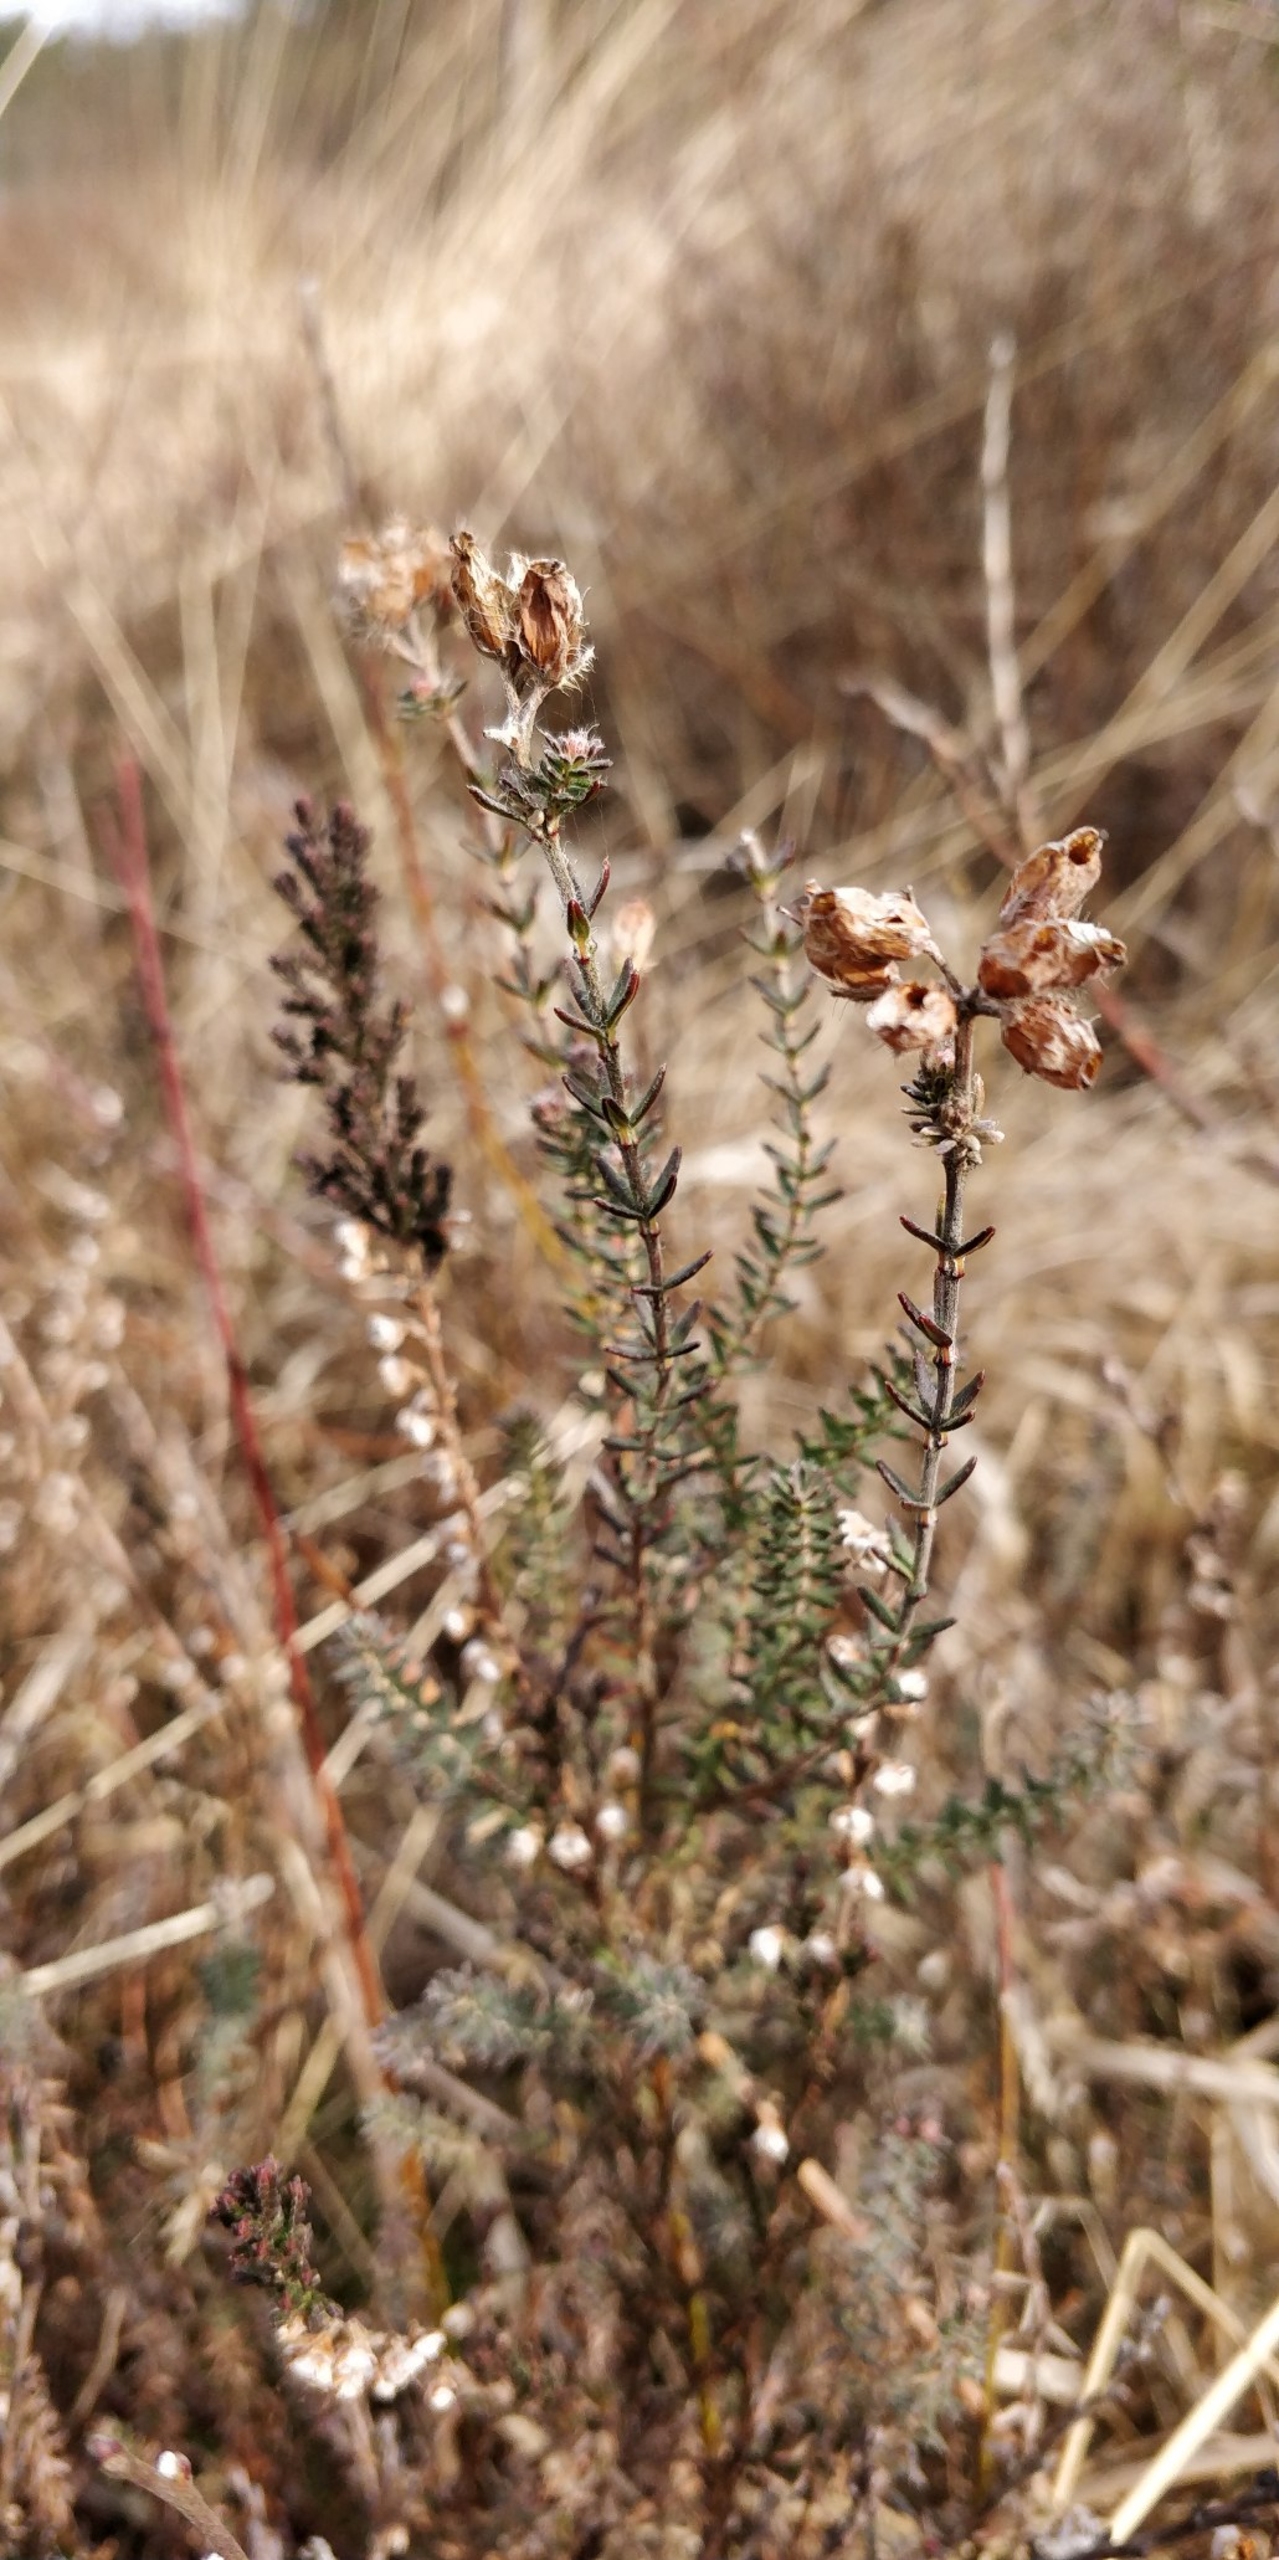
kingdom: Plantae
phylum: Tracheophyta
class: Magnoliopsida
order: Ericales
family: Ericaceae
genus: Erica
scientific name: Erica tetralix
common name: Klokkelyng
